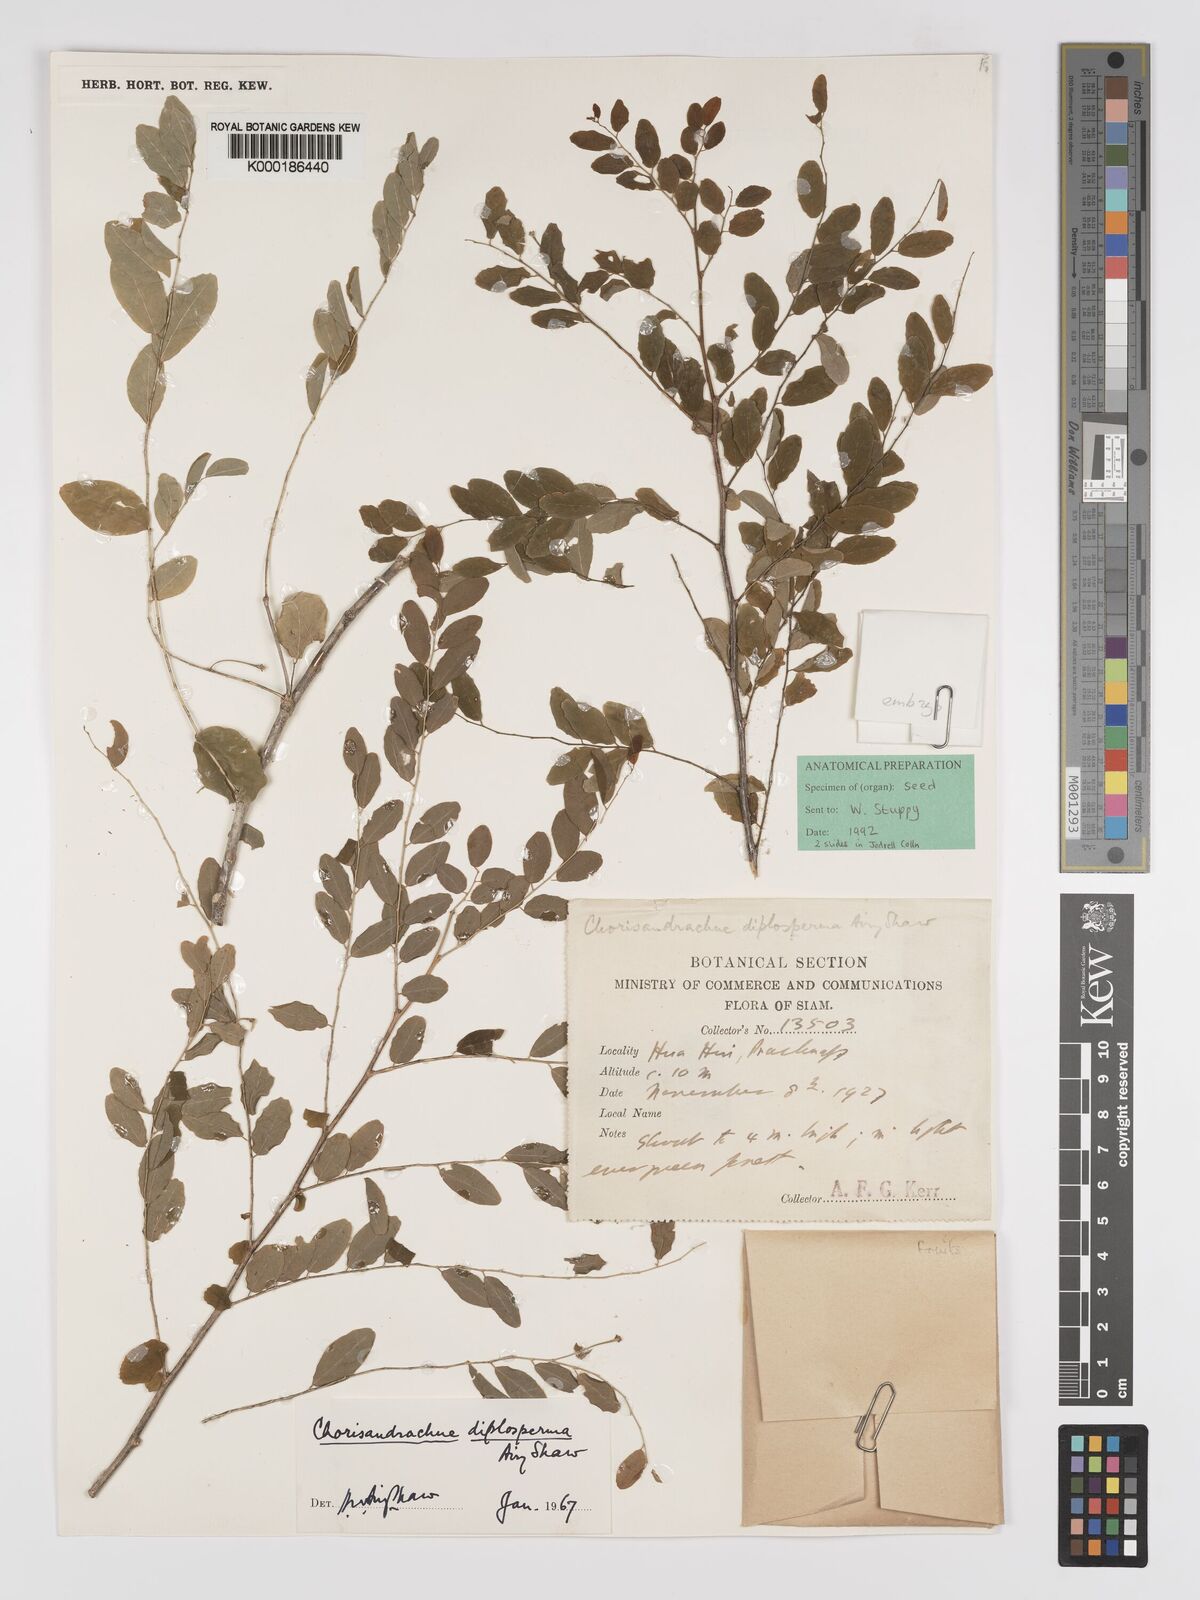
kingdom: Plantae
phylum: Tracheophyta
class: Magnoliopsida
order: Malpighiales
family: Phyllanthaceae
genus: Andrachne
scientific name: Andrachne
